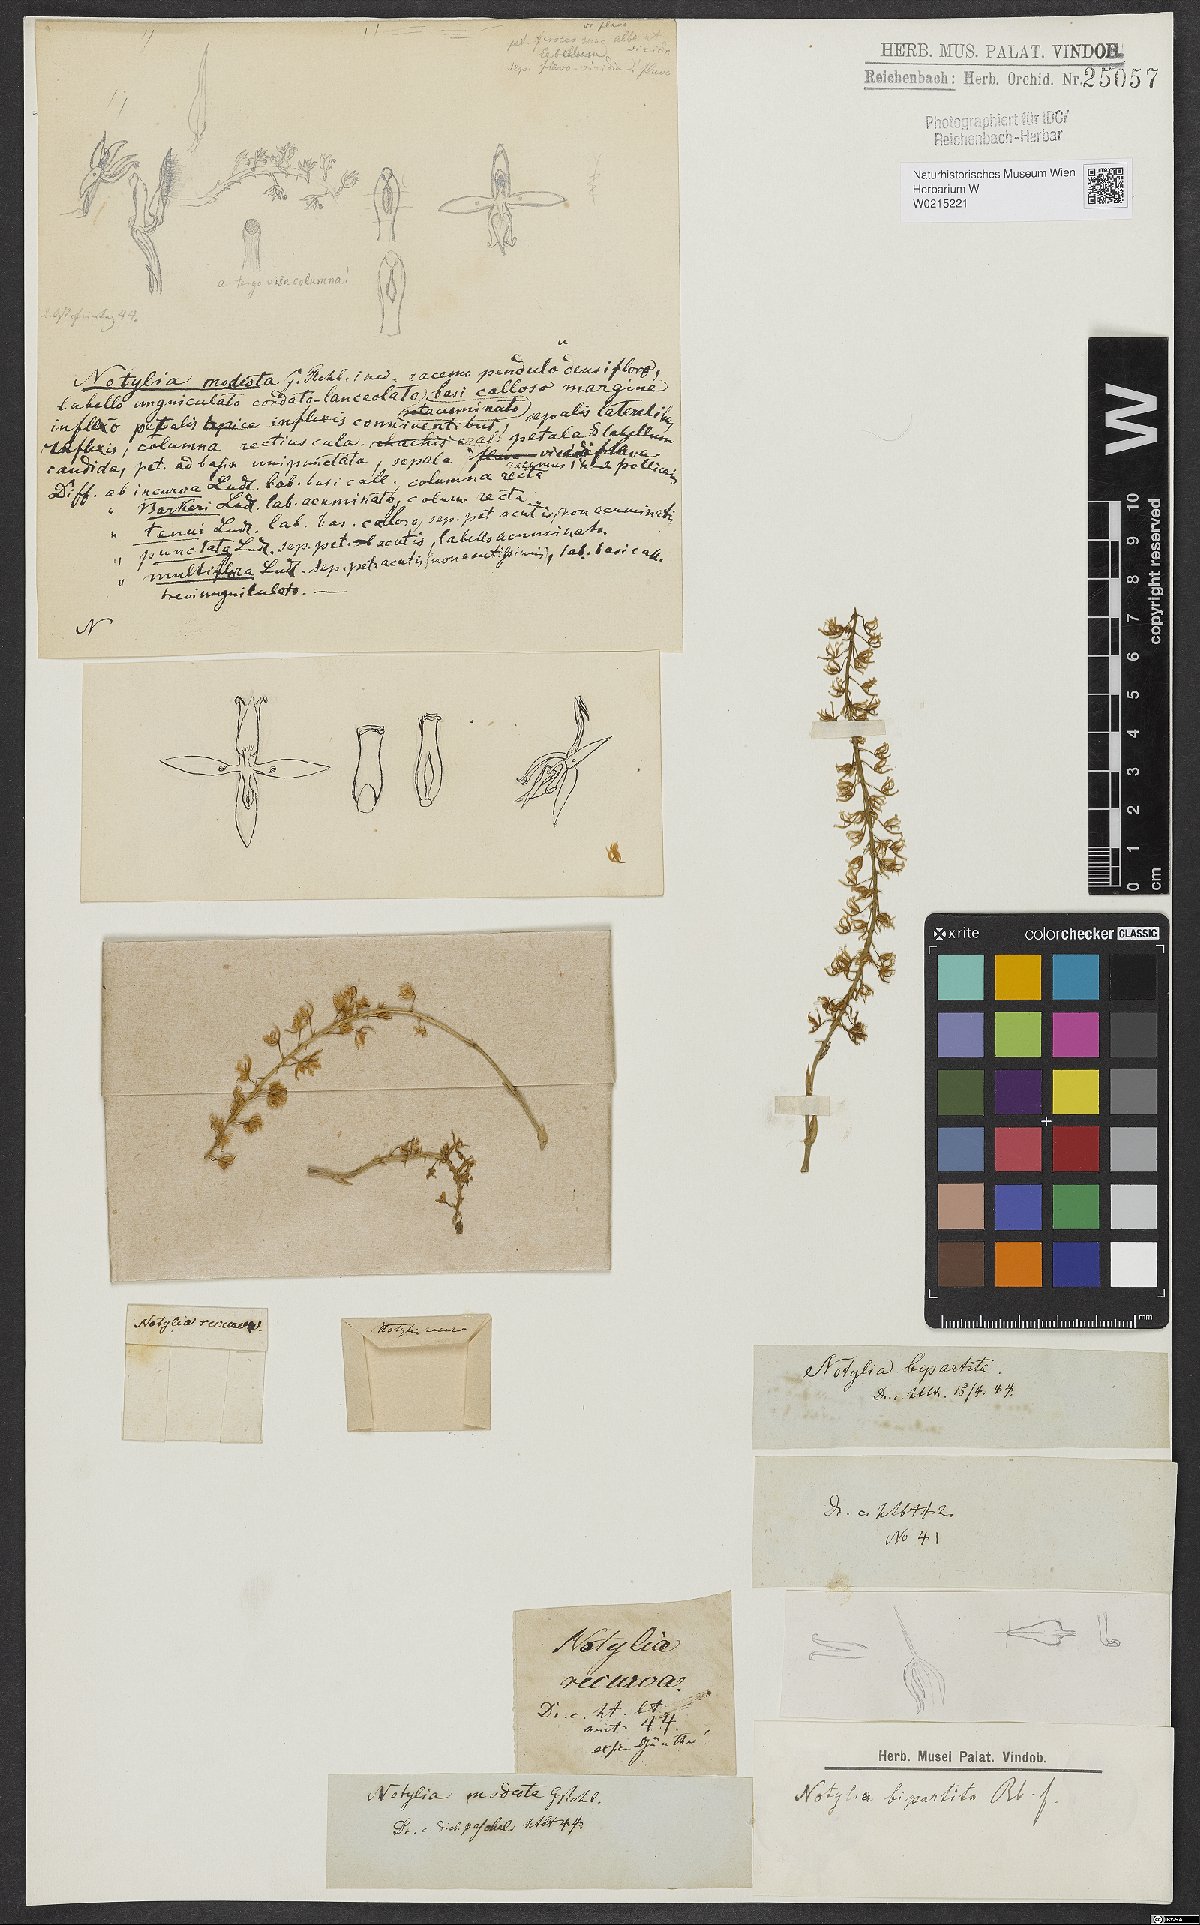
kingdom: Plantae
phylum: Tracheophyta
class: Liliopsida
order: Asparagales
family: Orchidaceae
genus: Notylia
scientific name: Notylia bipartita
